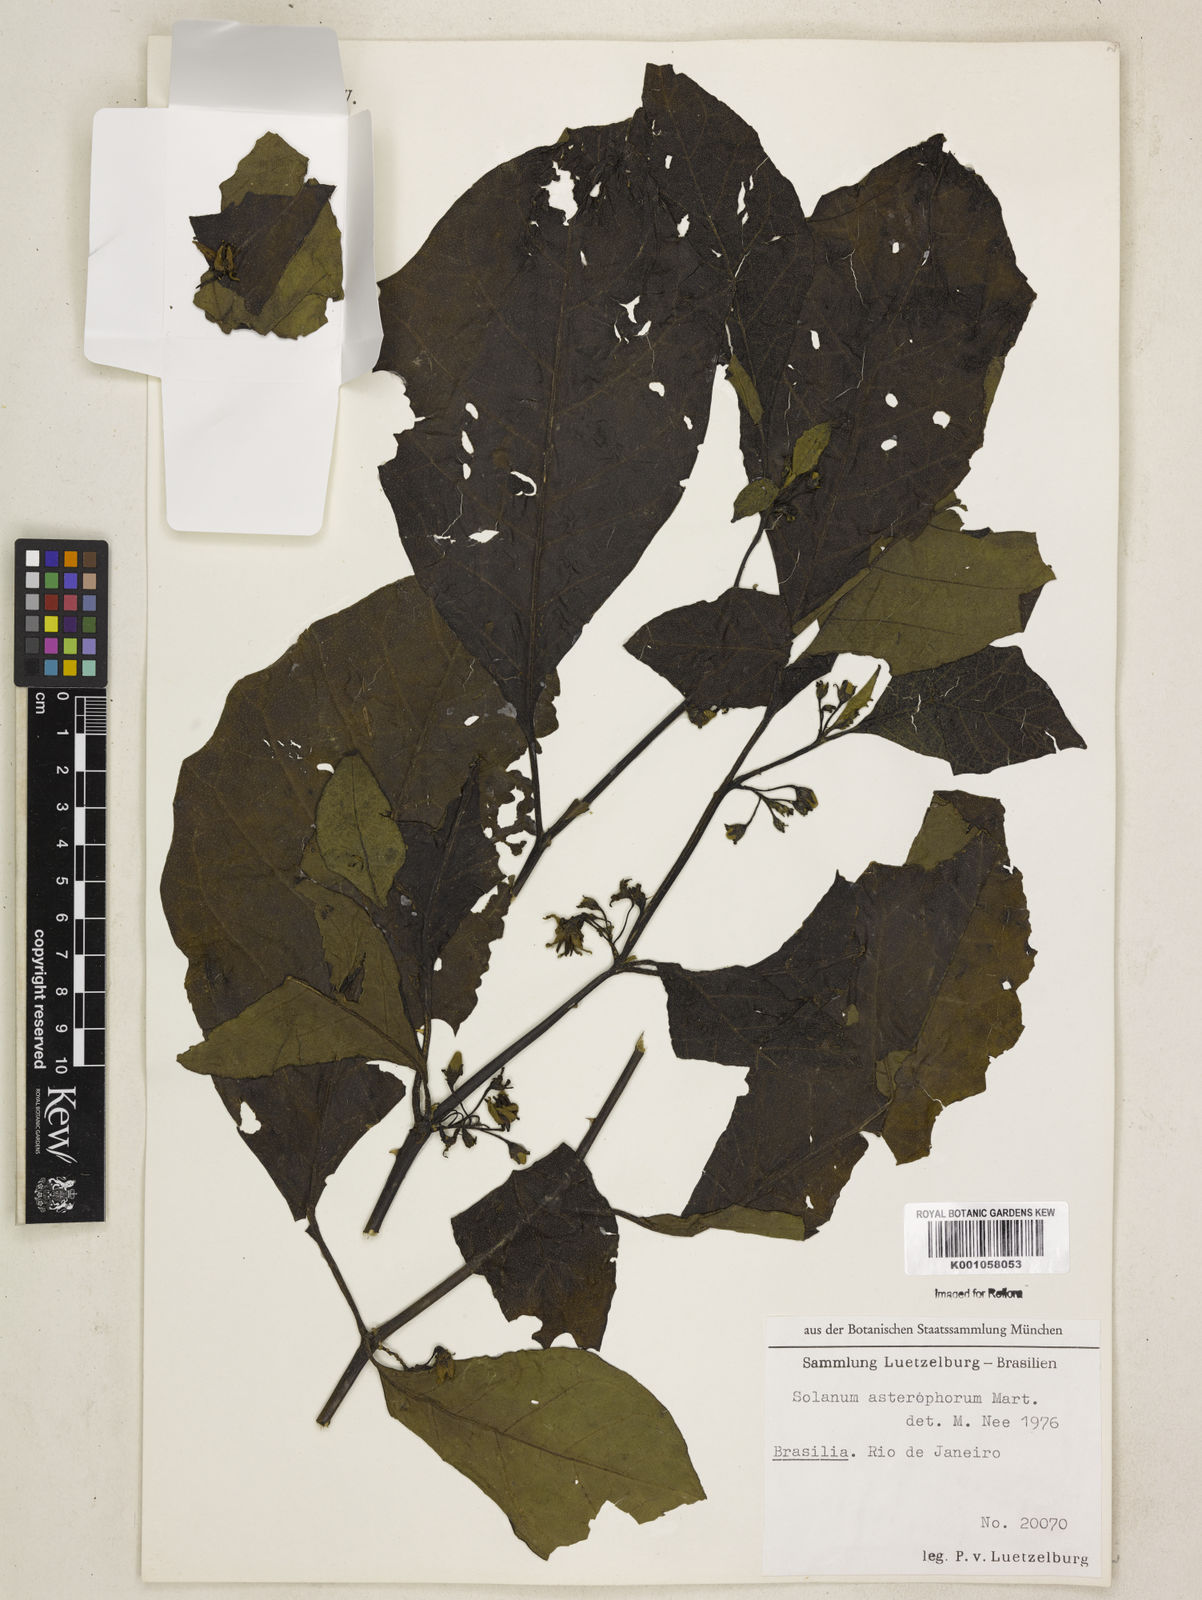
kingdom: Plantae
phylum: Tracheophyta
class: Magnoliopsida
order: Solanales
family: Solanaceae
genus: Solanum
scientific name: Solanum asterophorum
